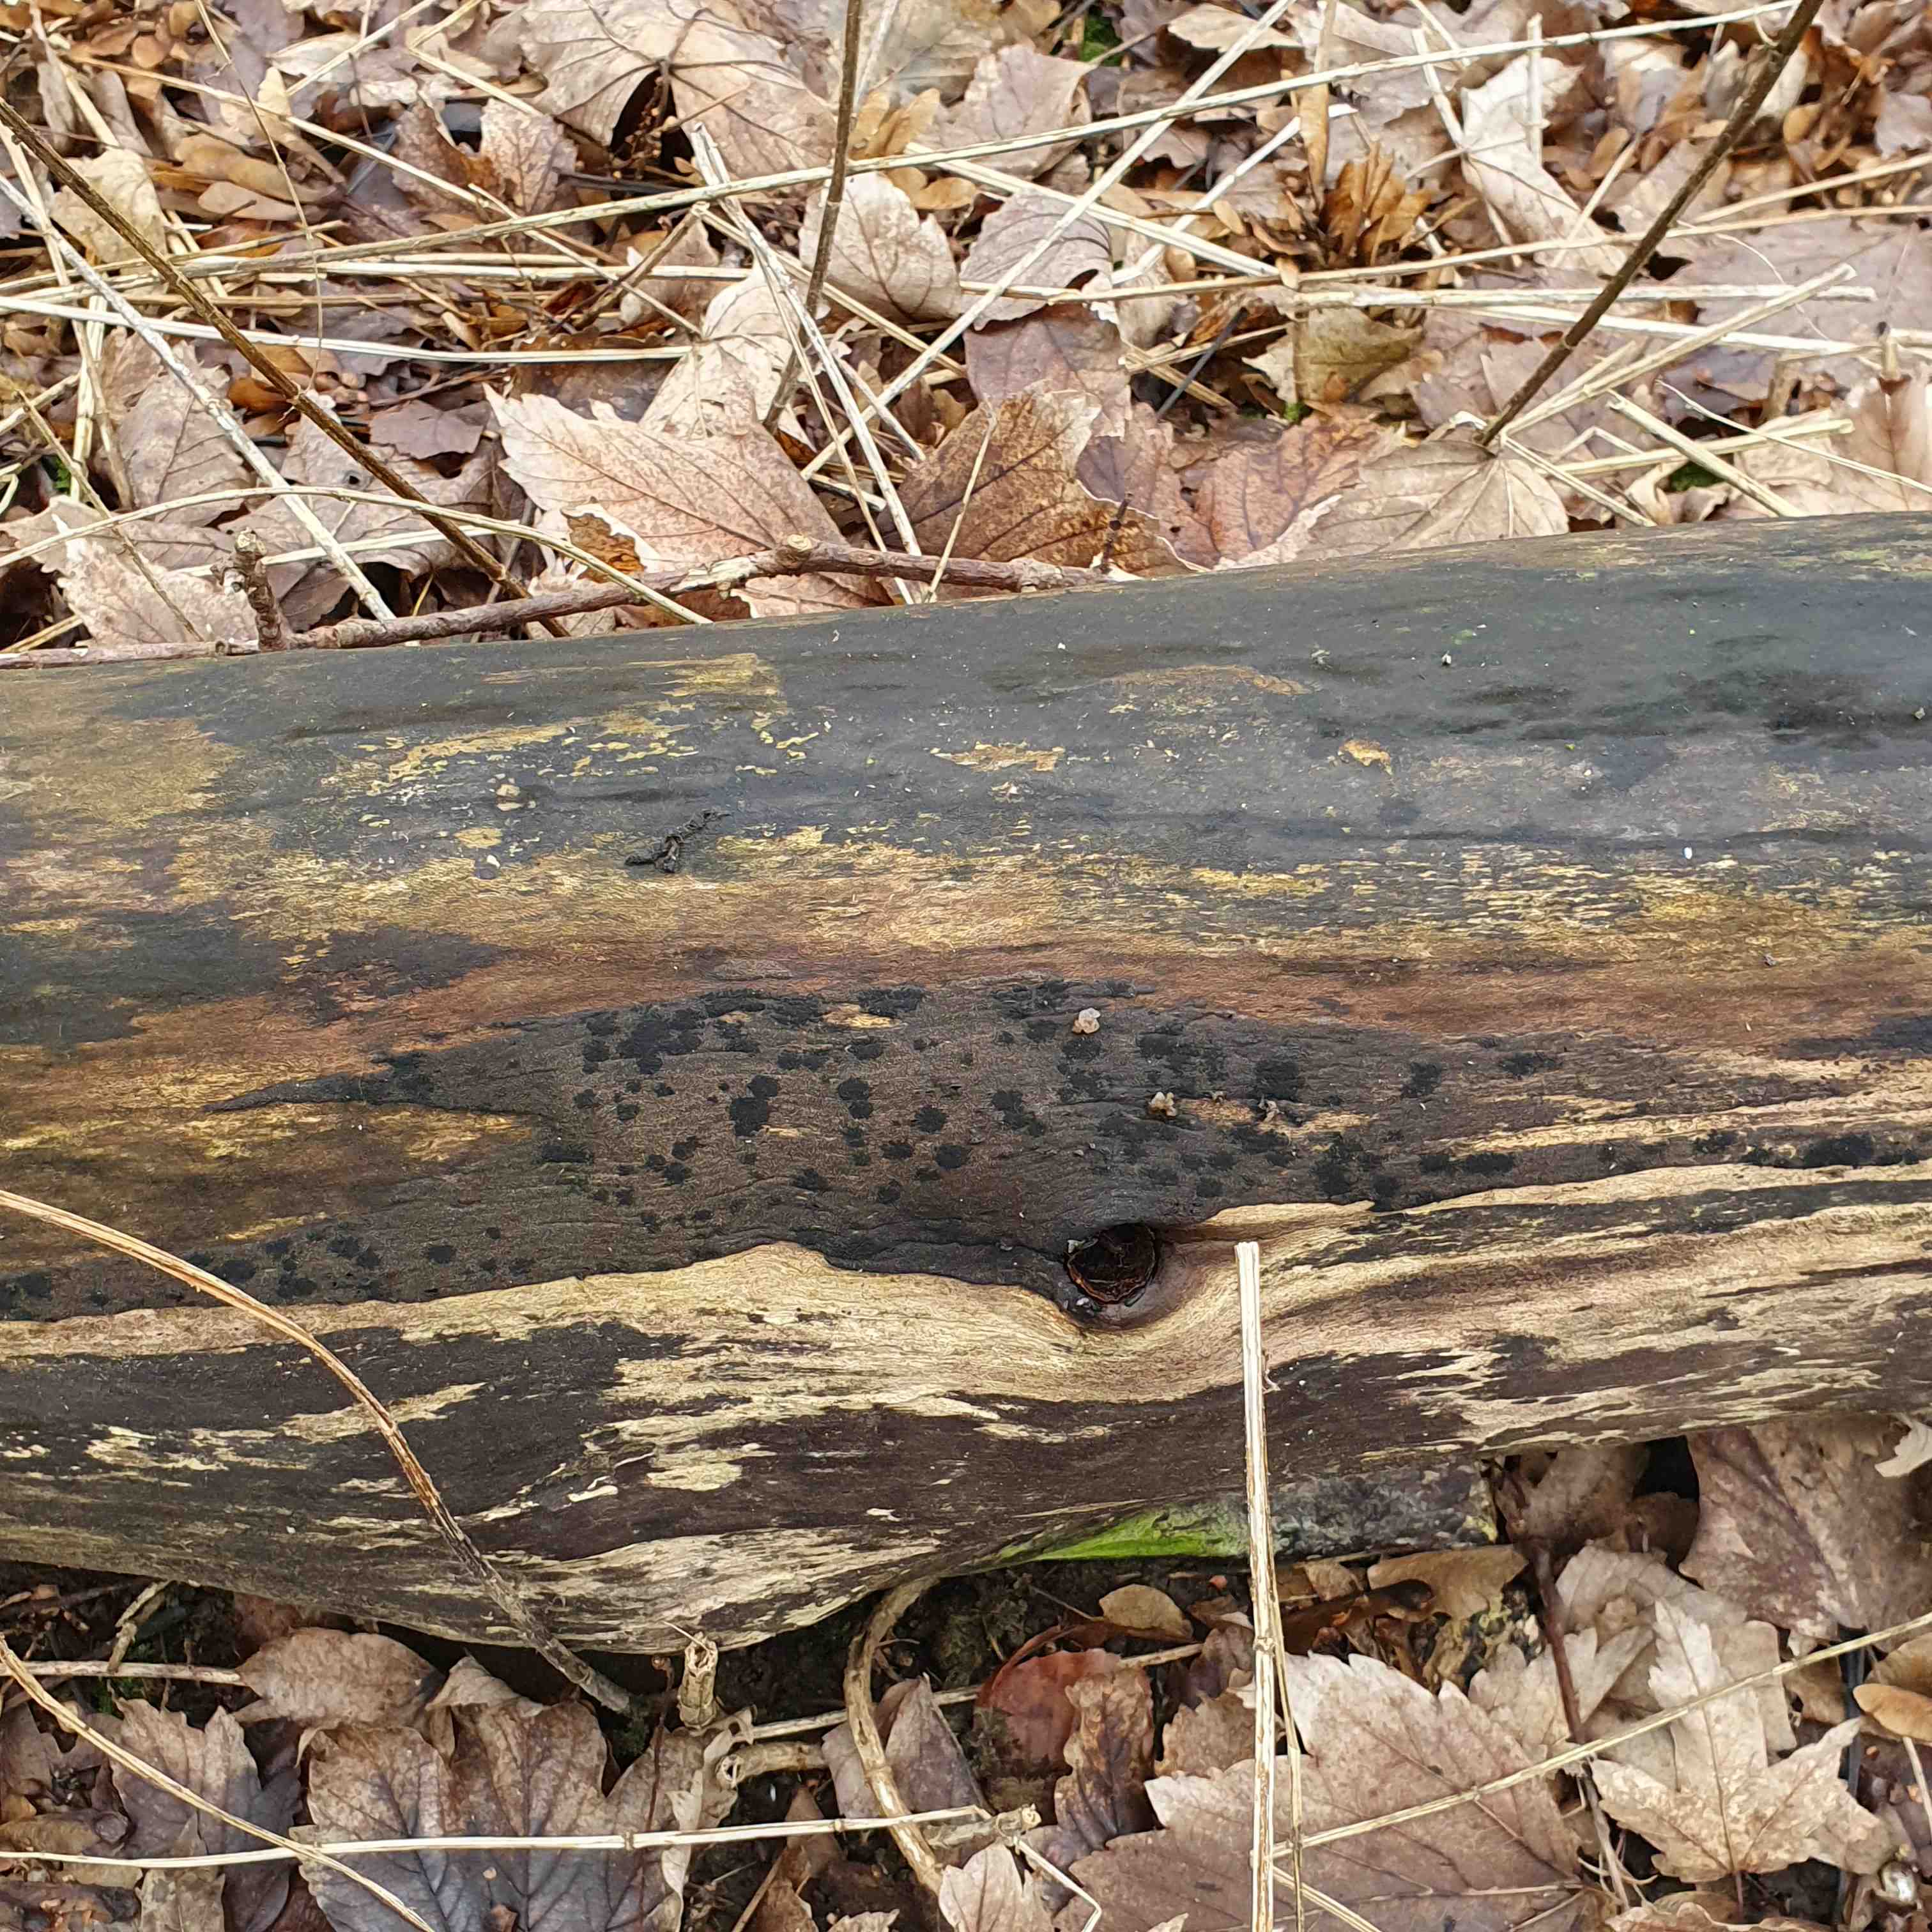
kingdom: Fungi
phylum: Ascomycota
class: Eurotiomycetes
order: Chaetothyriales
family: Herpotrichiellaceae
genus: Capronia
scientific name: Capronia nigerrima
